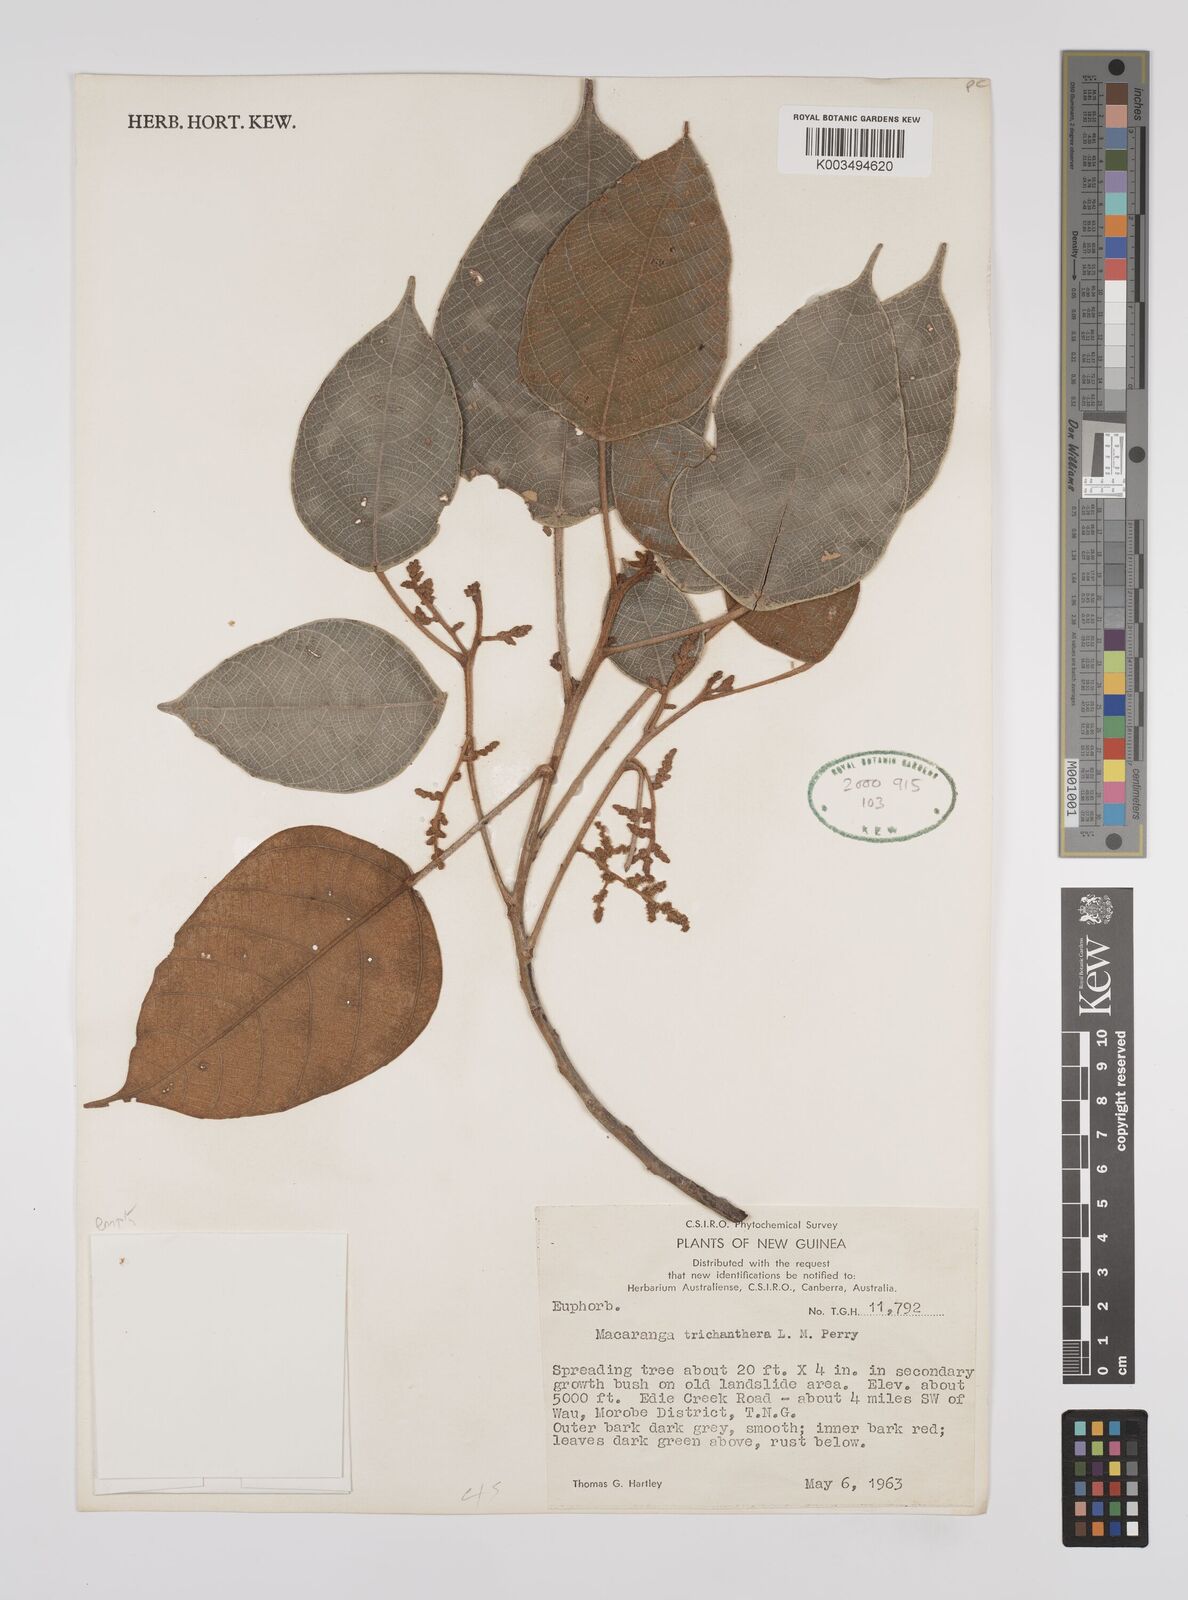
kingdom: Plantae
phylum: Tracheophyta
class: Magnoliopsida
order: Malpighiales
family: Euphorbiaceae
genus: Macaranga
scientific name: Macaranga trichanthera
